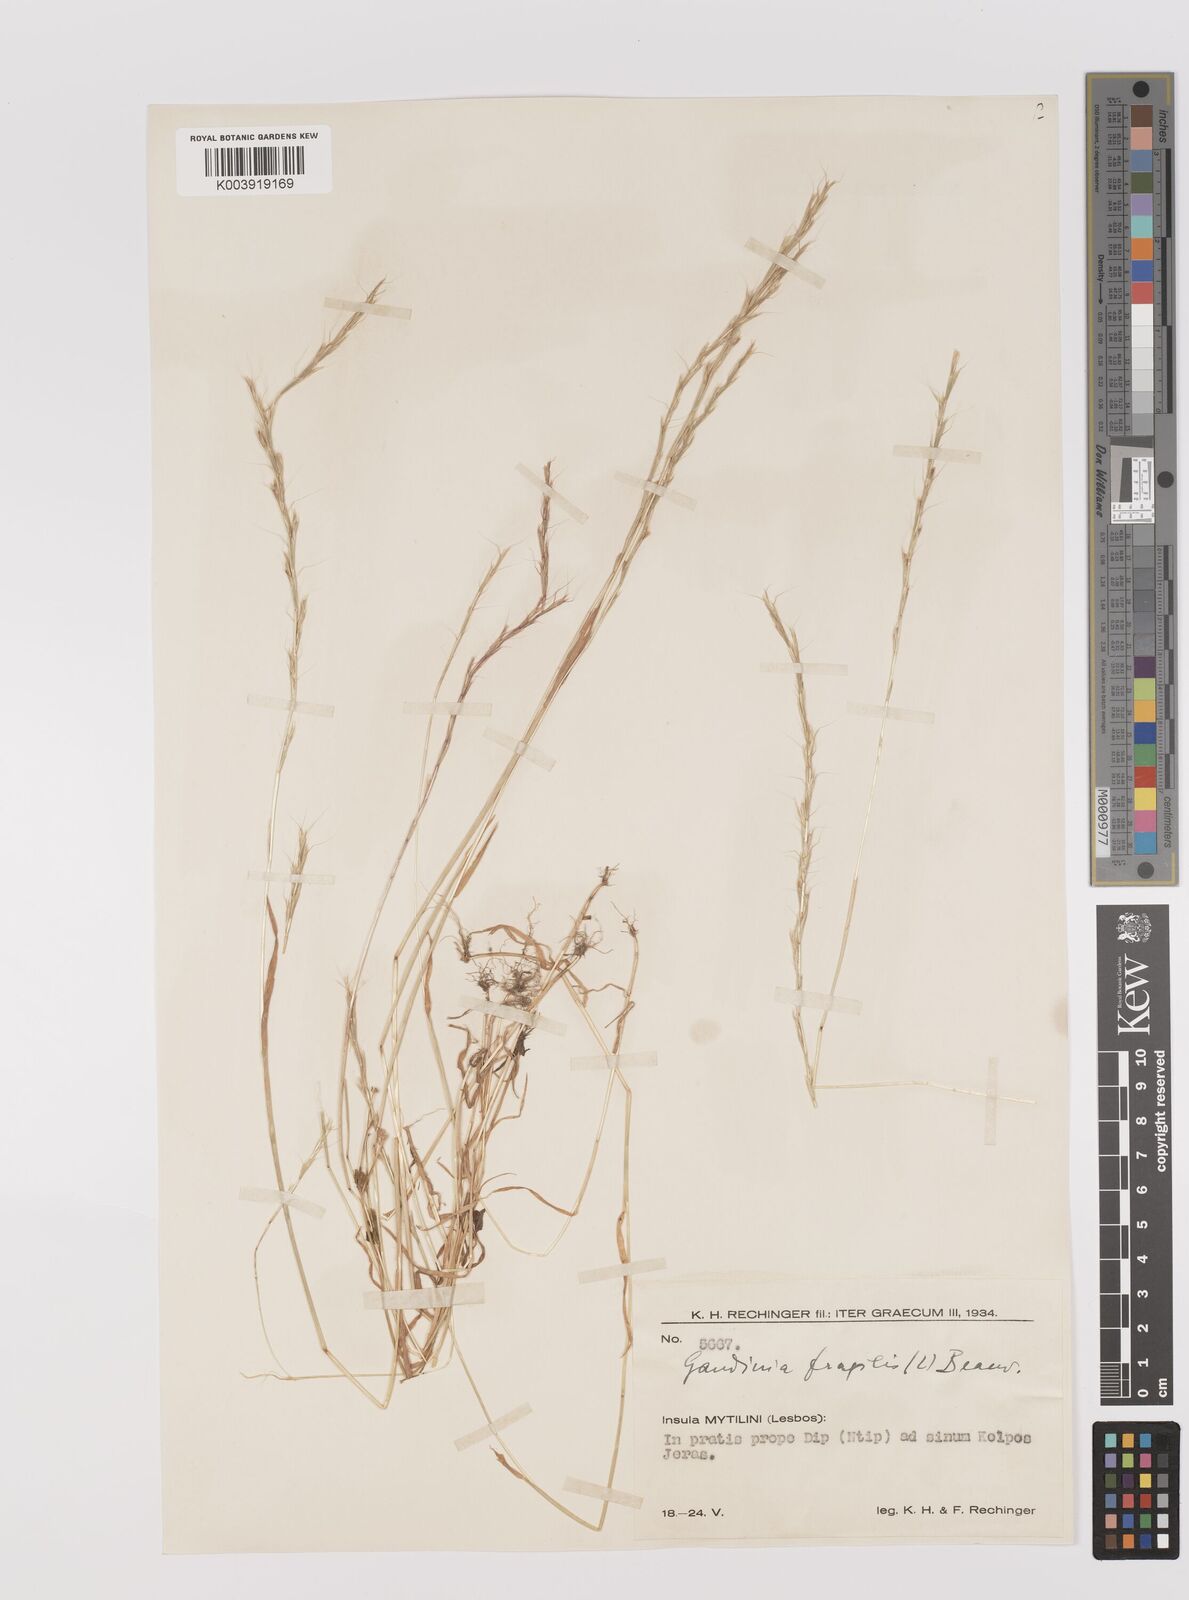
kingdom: Plantae
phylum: Tracheophyta
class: Liliopsida
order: Poales
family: Poaceae
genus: Gaudinia
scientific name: Gaudinia fragilis
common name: French oat-grass
